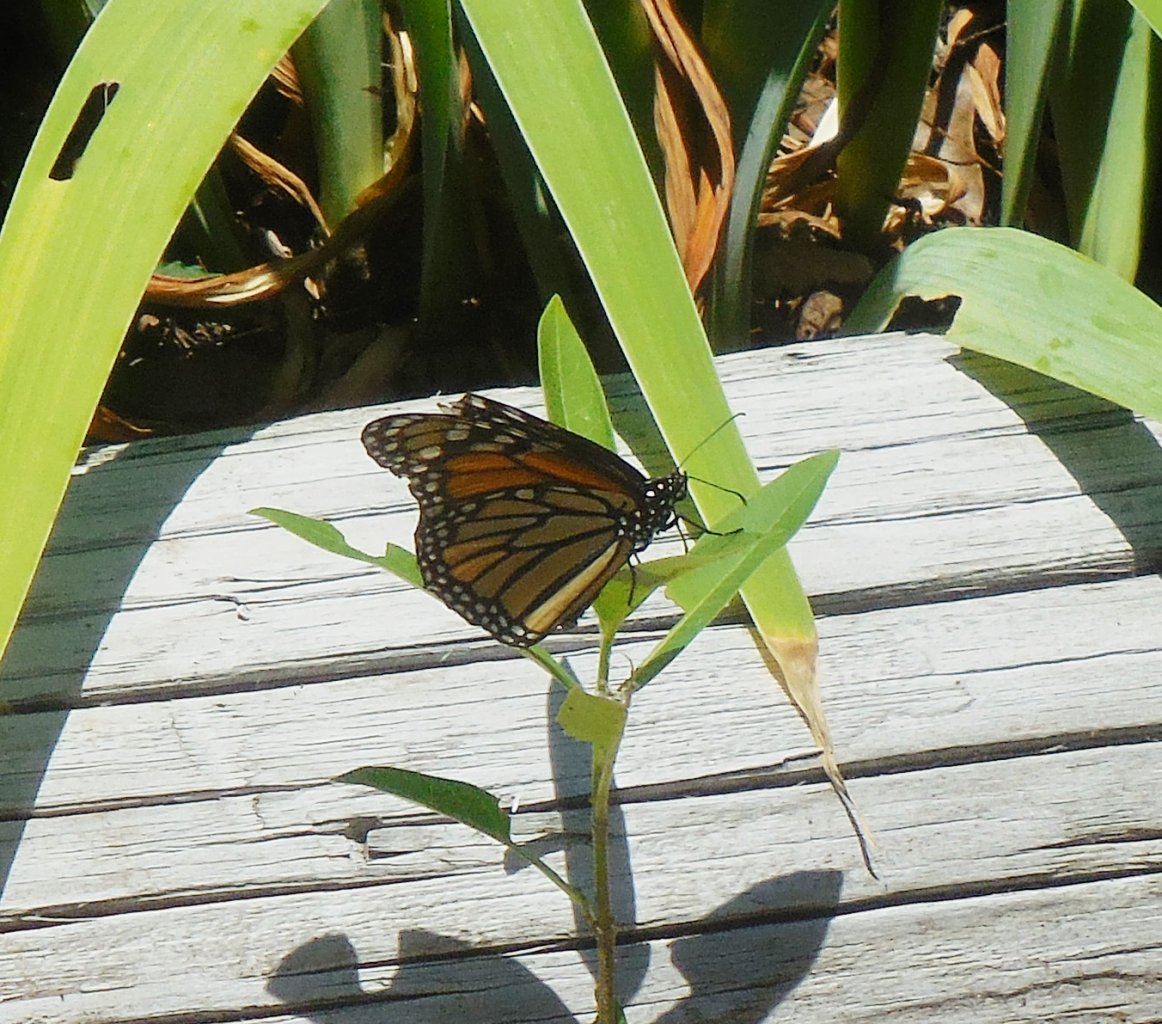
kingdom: Animalia
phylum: Arthropoda
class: Insecta
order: Lepidoptera
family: Nymphalidae
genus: Danaus
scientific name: Danaus plexippus
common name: Monarch
